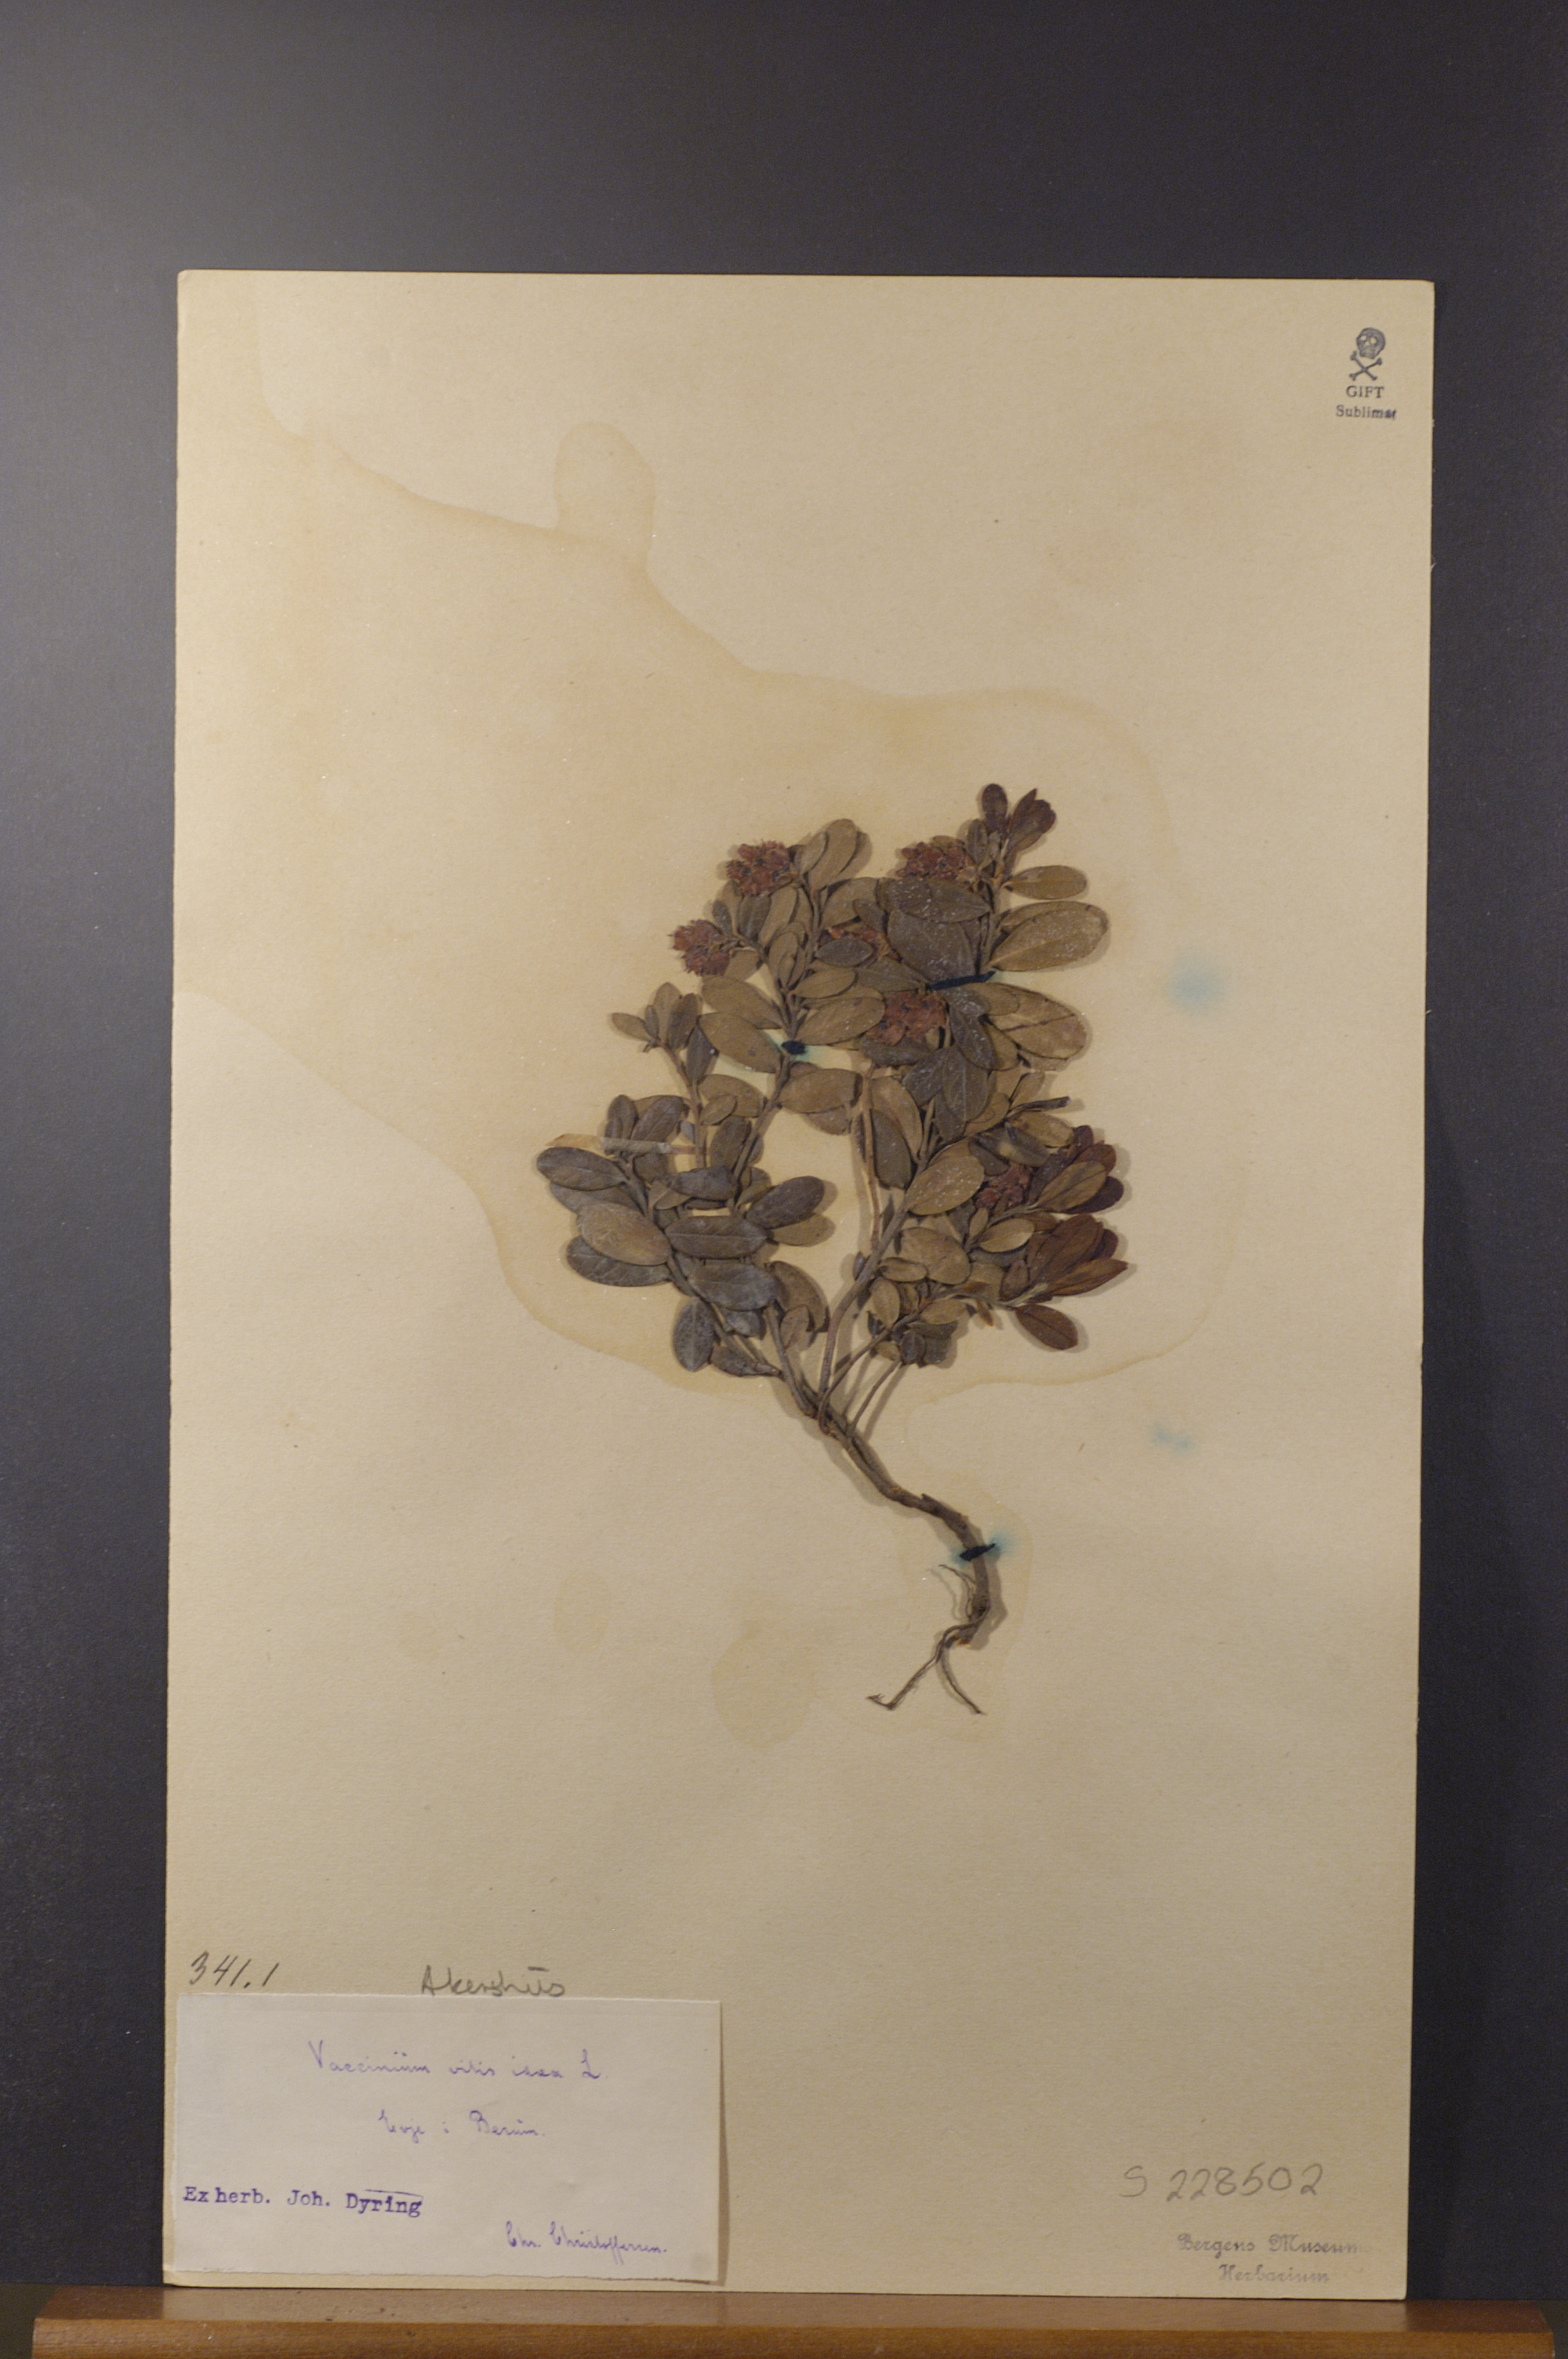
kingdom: Plantae
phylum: Tracheophyta
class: Magnoliopsida
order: Ericales
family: Ericaceae
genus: Vaccinium
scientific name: Vaccinium vitis-idaea
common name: Cowberry
